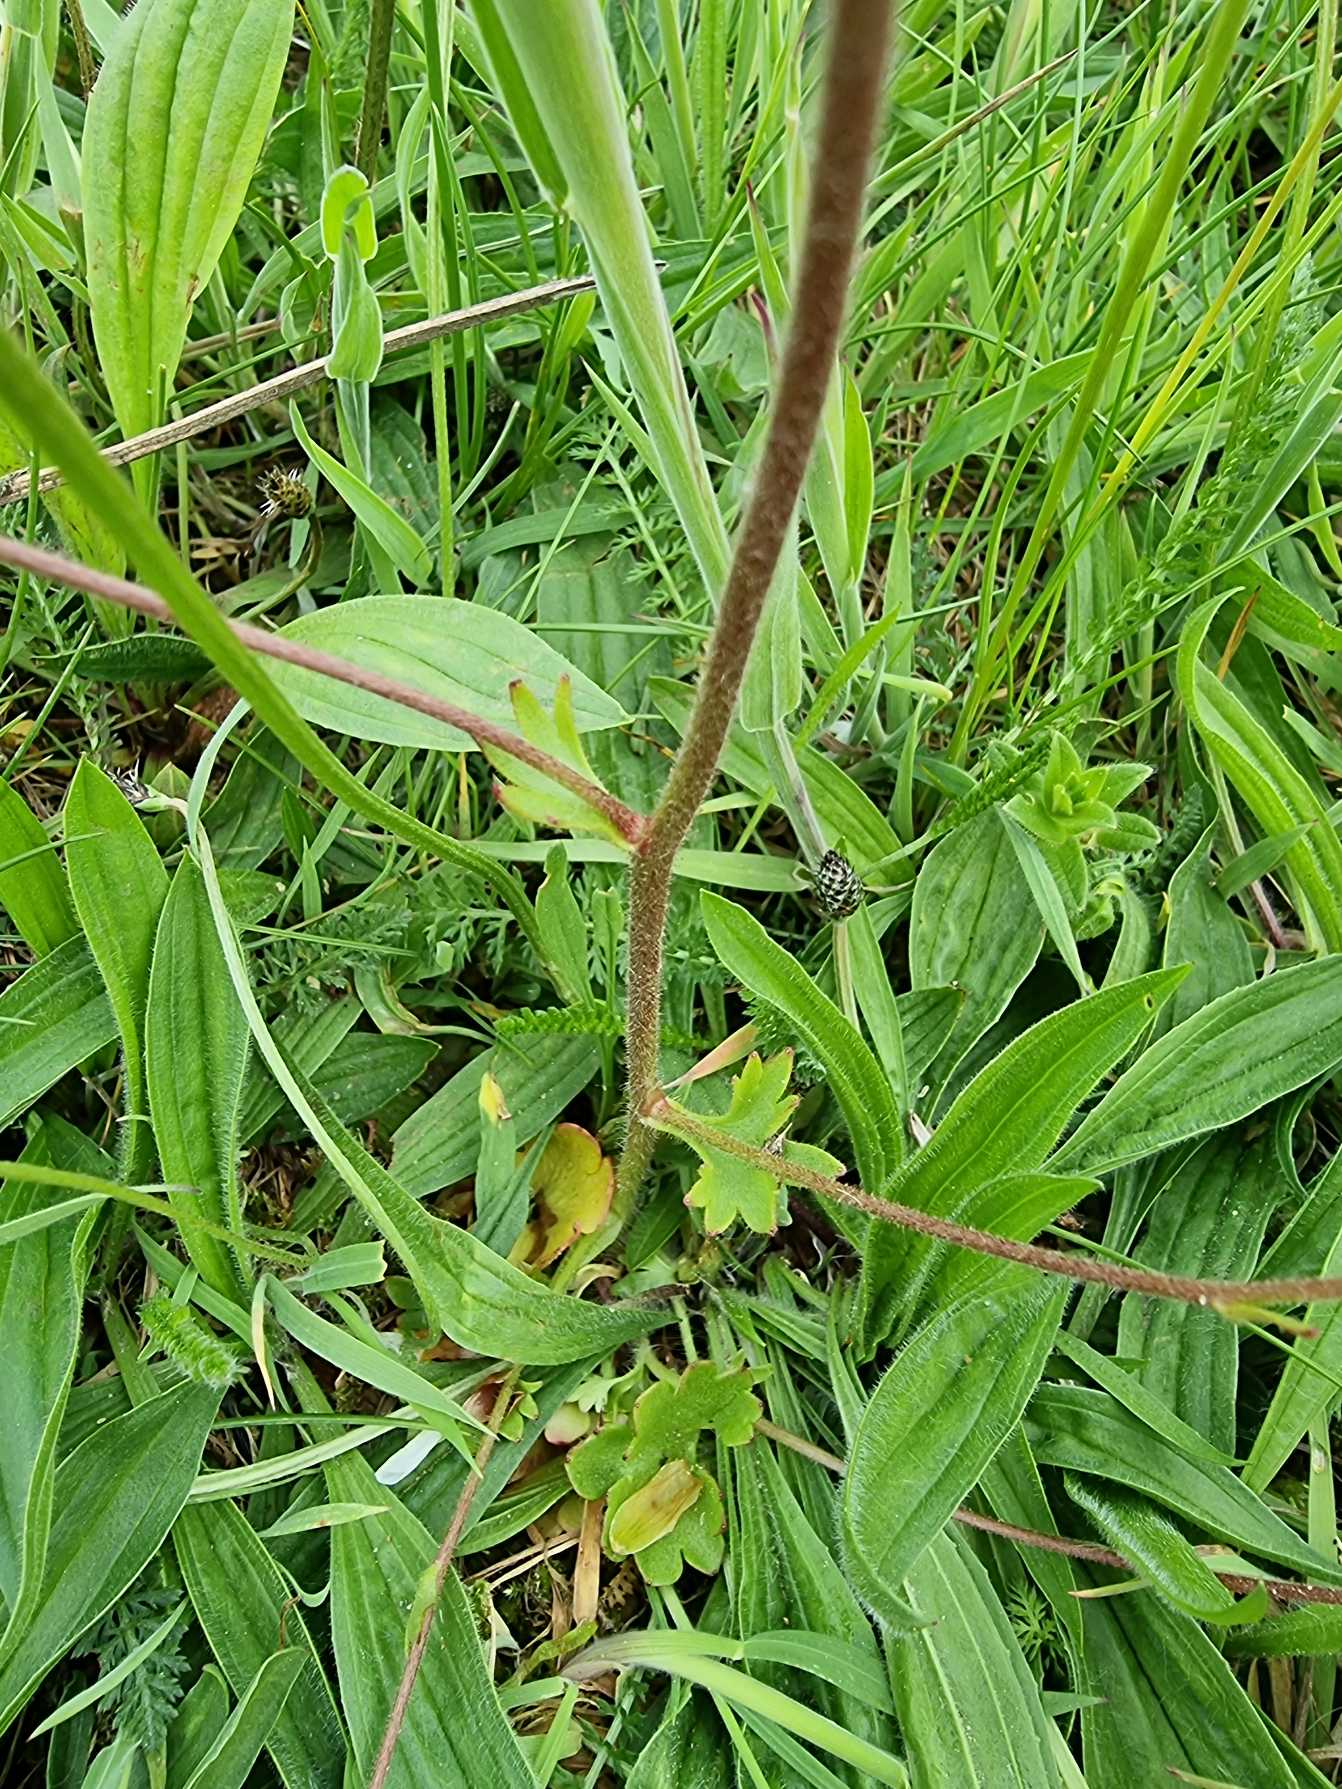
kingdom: Plantae
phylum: Tracheophyta
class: Magnoliopsida
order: Saxifragales
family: Saxifragaceae
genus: Saxifraga
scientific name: Saxifraga granulata
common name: Kornet stenbræk
